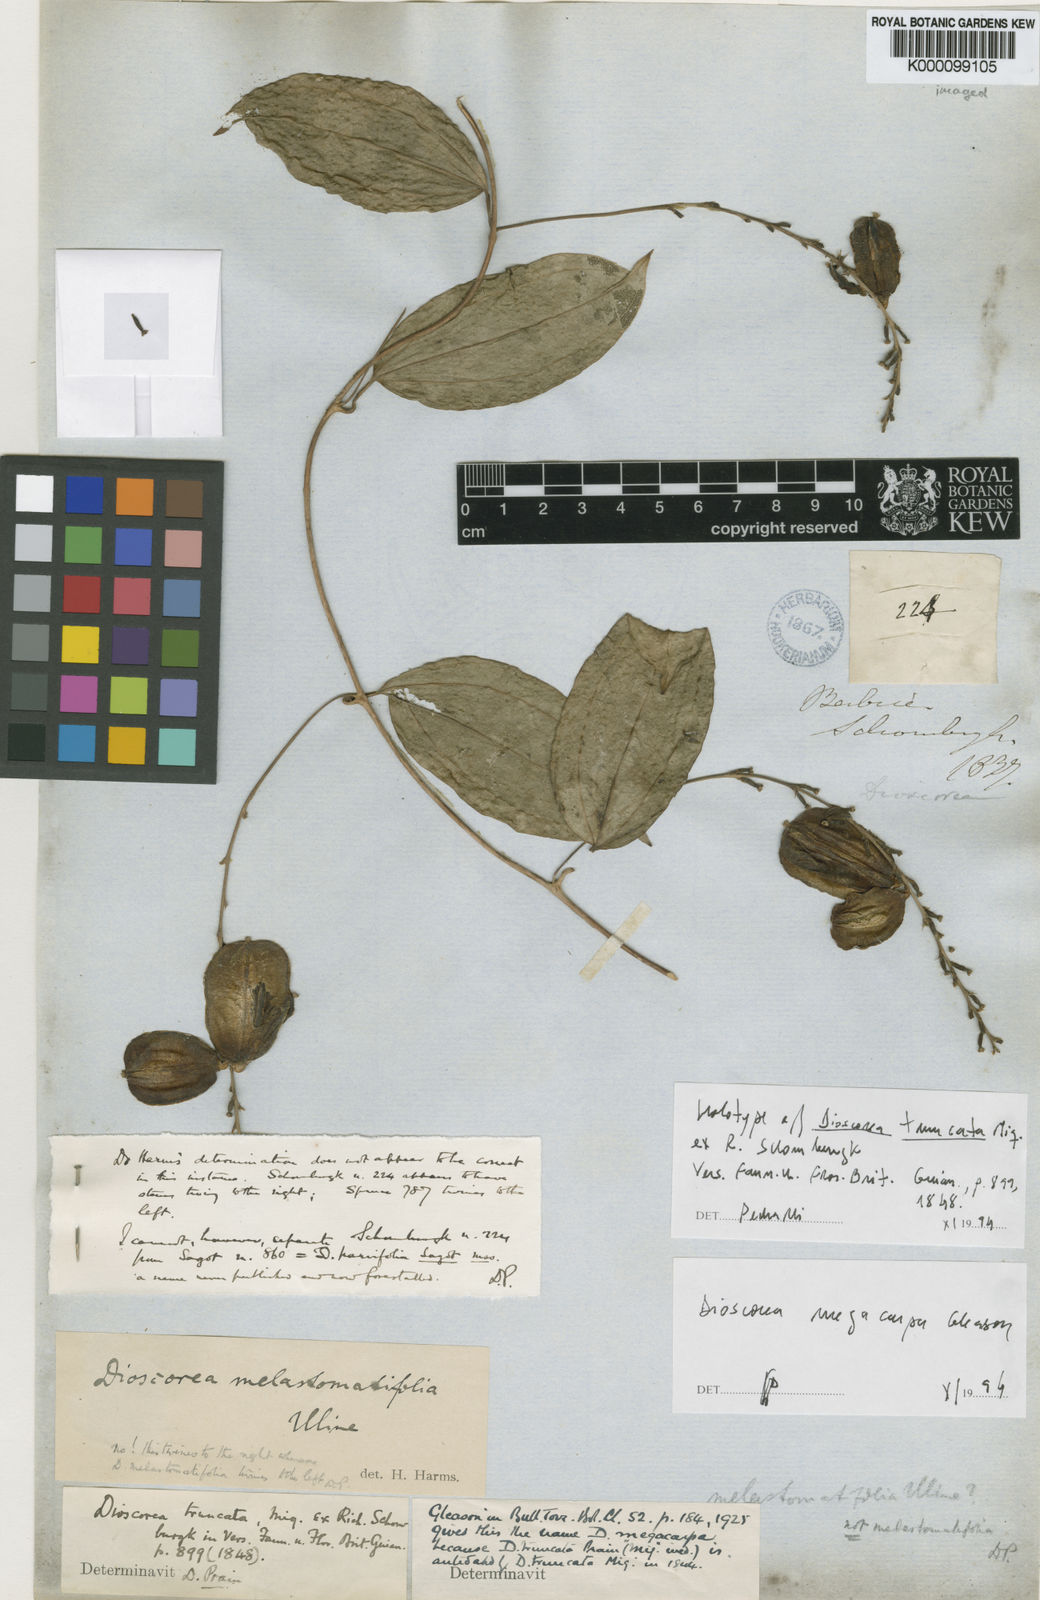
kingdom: Plantae
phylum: Tracheophyta
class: Liliopsida
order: Dioscoreales
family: Dioscoreaceae
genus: Dioscorea
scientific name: Dioscorea
